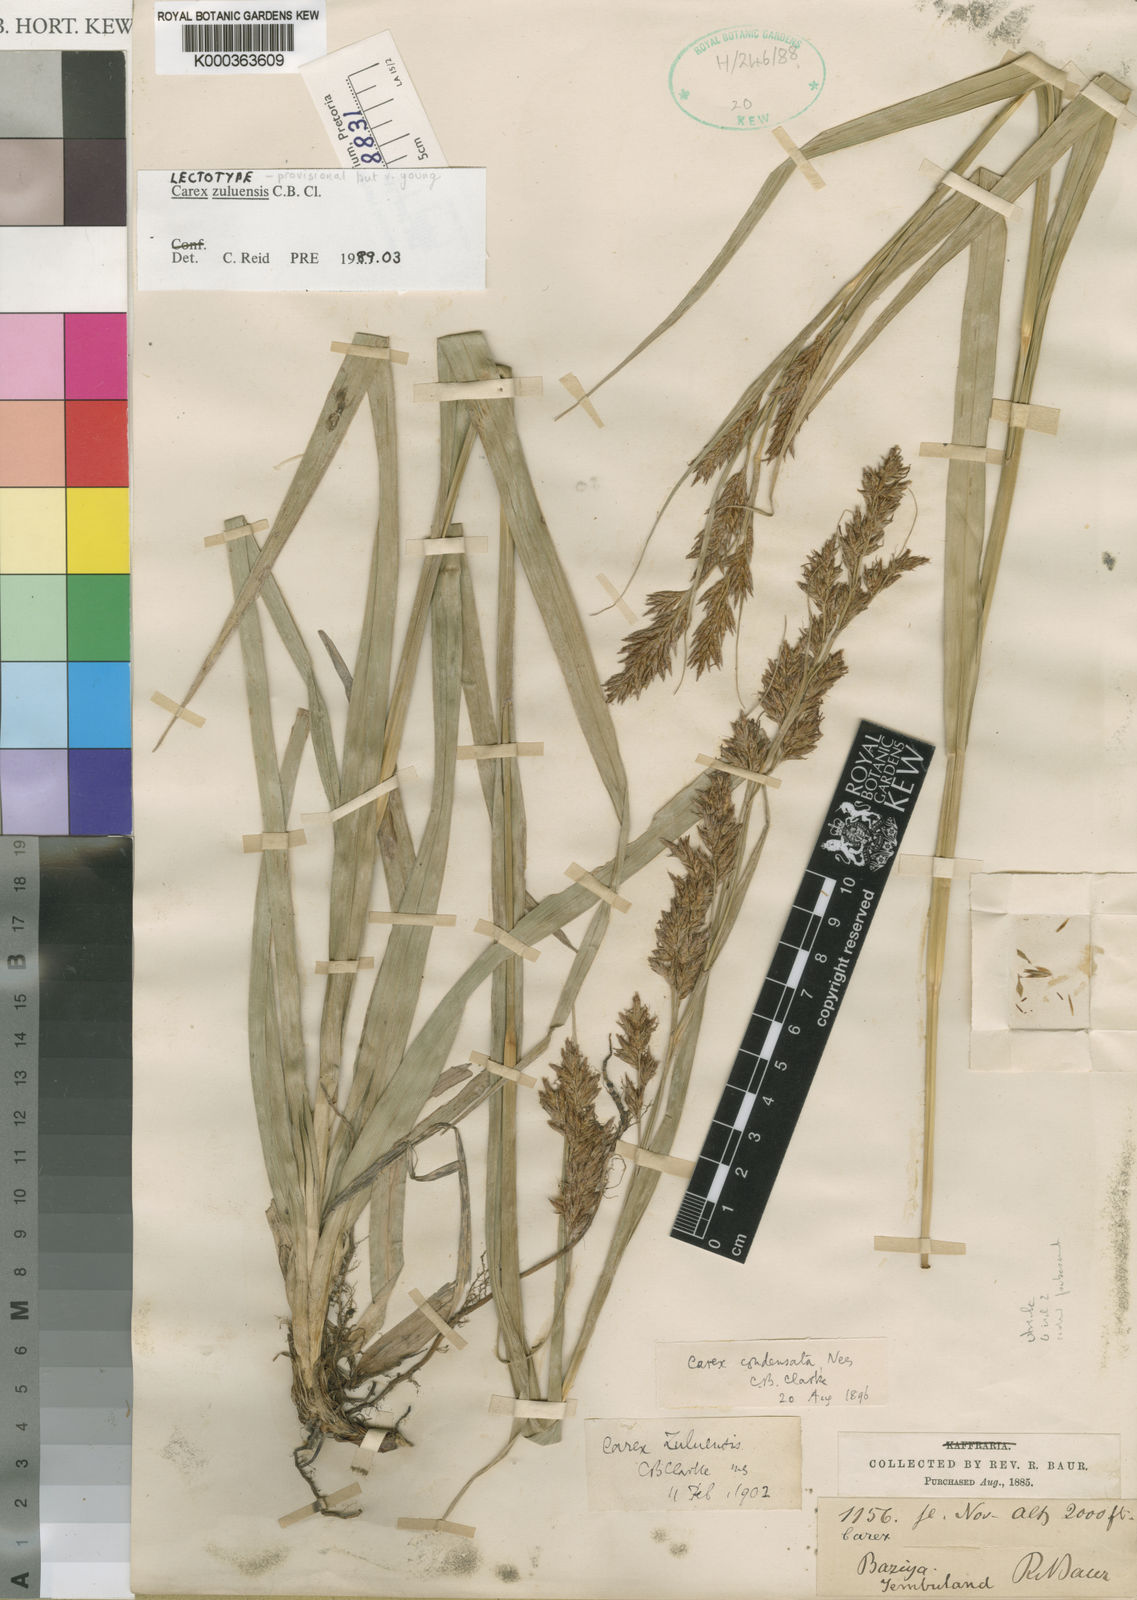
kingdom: Plantae
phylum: Tracheophyta
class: Liliopsida
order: Poales
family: Cyperaceae
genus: Carex
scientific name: Carex steudneri
